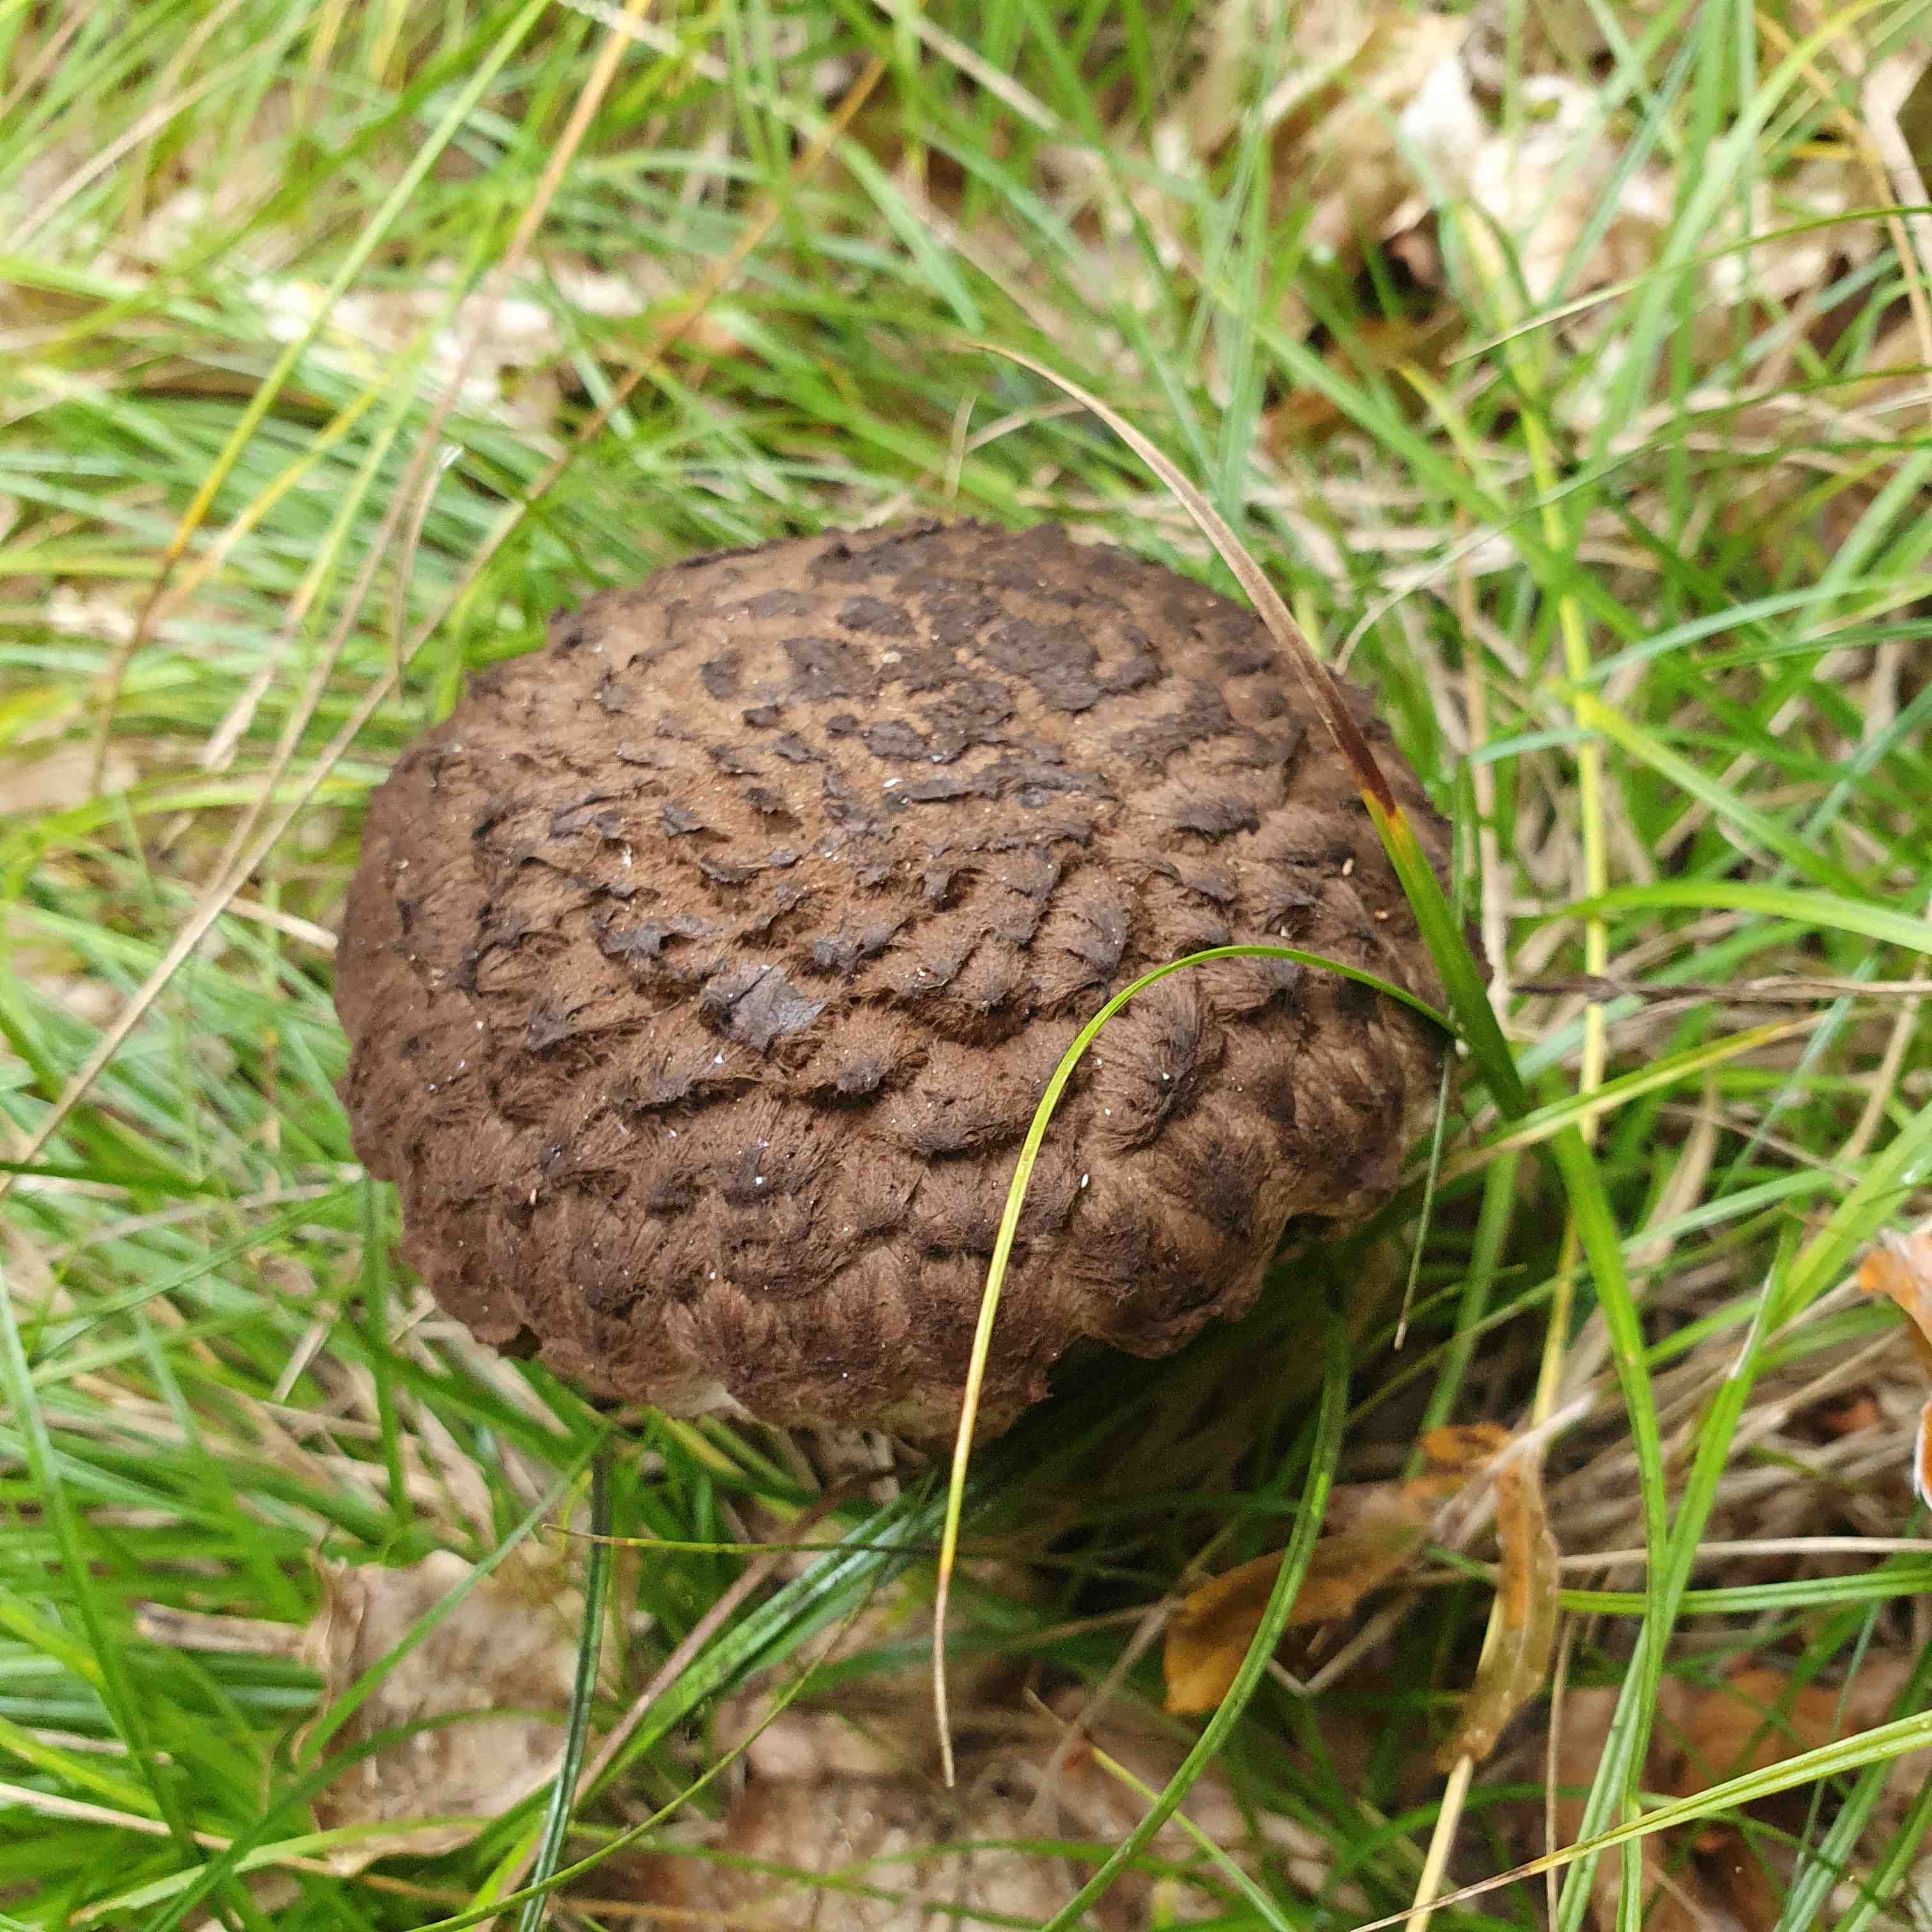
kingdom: Fungi
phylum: Basidiomycota
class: Agaricomycetes
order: Boletales
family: Boletaceae
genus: Strobilomyces
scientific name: Strobilomyces strobilaceus
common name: koglerørhat
